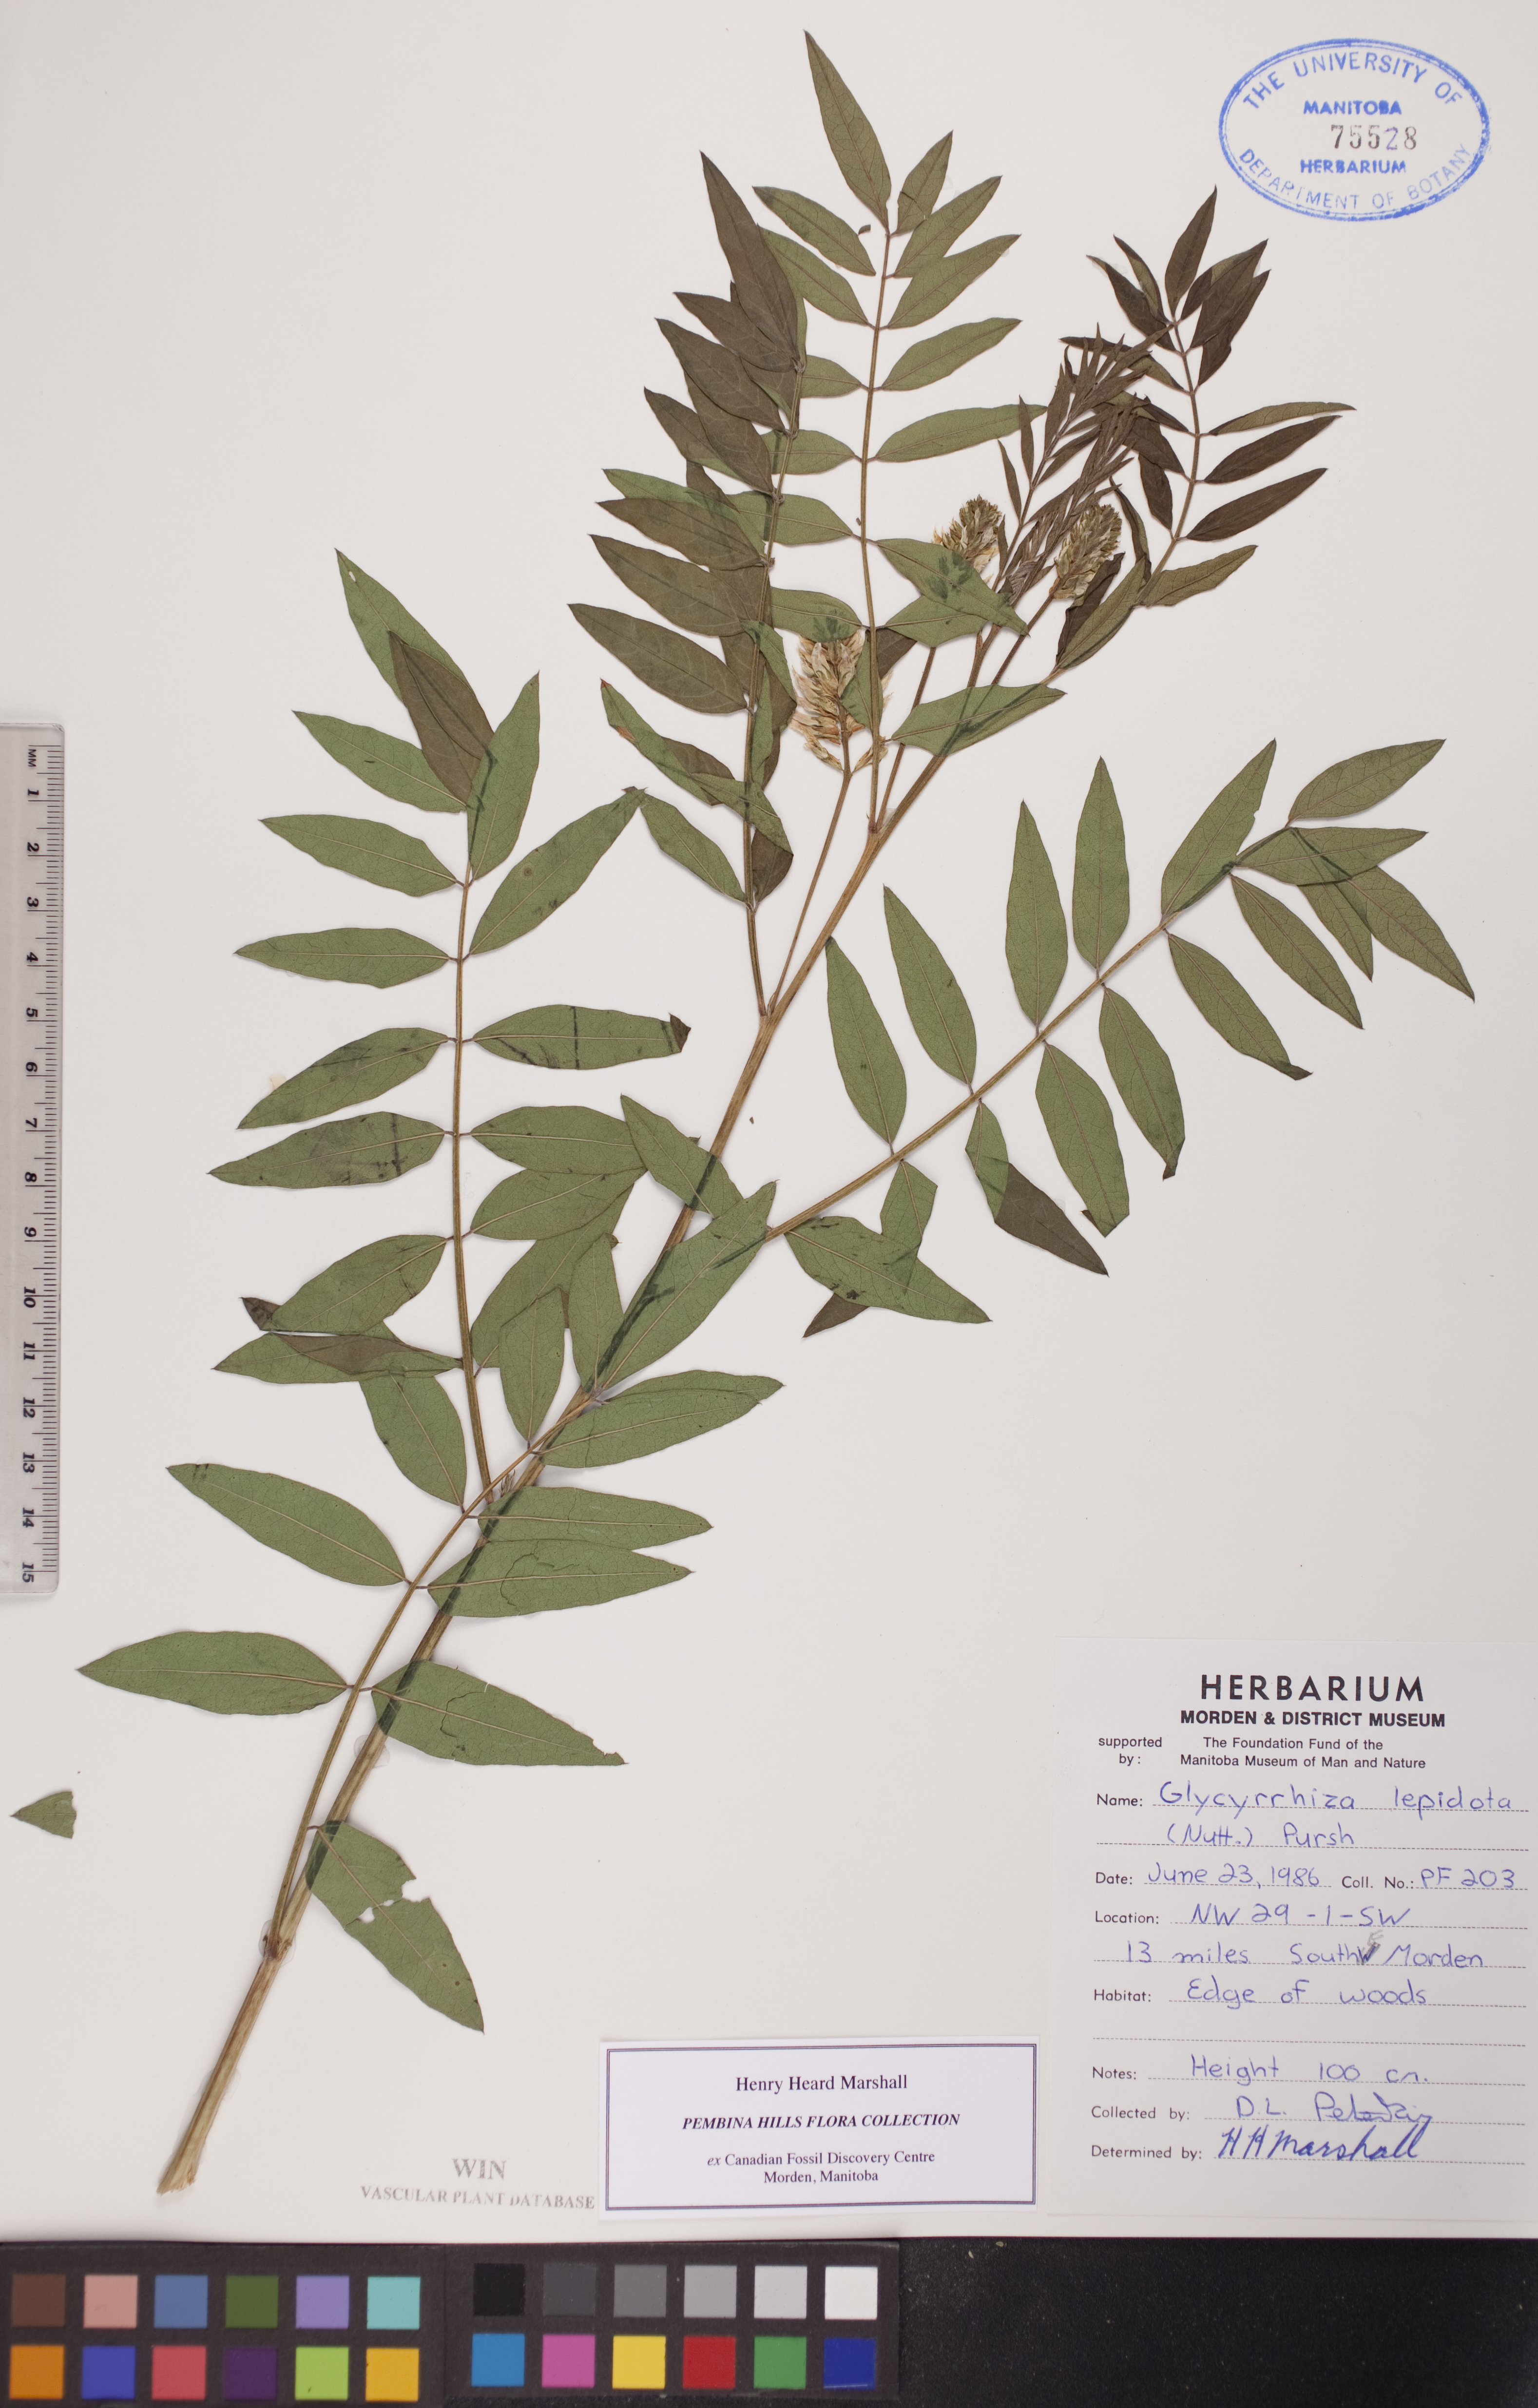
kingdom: Plantae
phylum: Tracheophyta
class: Magnoliopsida
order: Fabales
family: Fabaceae
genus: Glycyrrhiza
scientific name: Glycyrrhiza lepidota
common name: American liquorice
